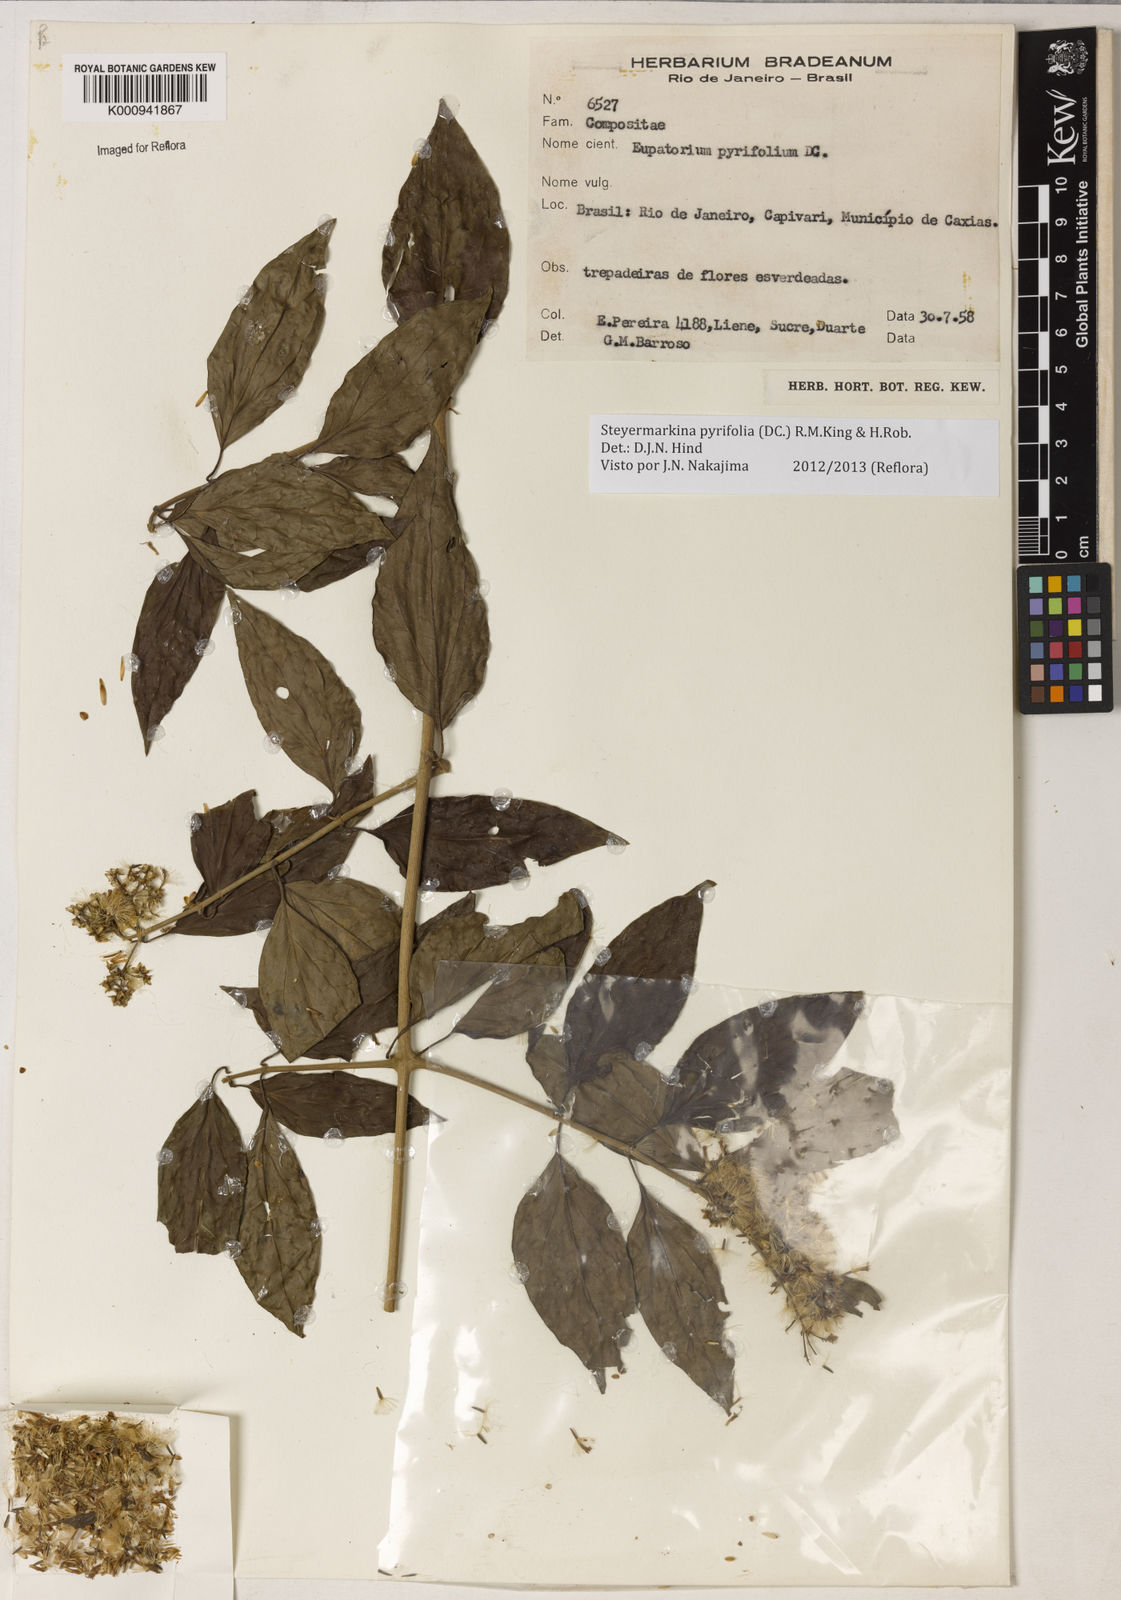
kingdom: Plantae
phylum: Tracheophyta
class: Magnoliopsida
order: Asterales
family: Asteraceae
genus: Steyermarkina
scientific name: Steyermarkina pyrifolia
